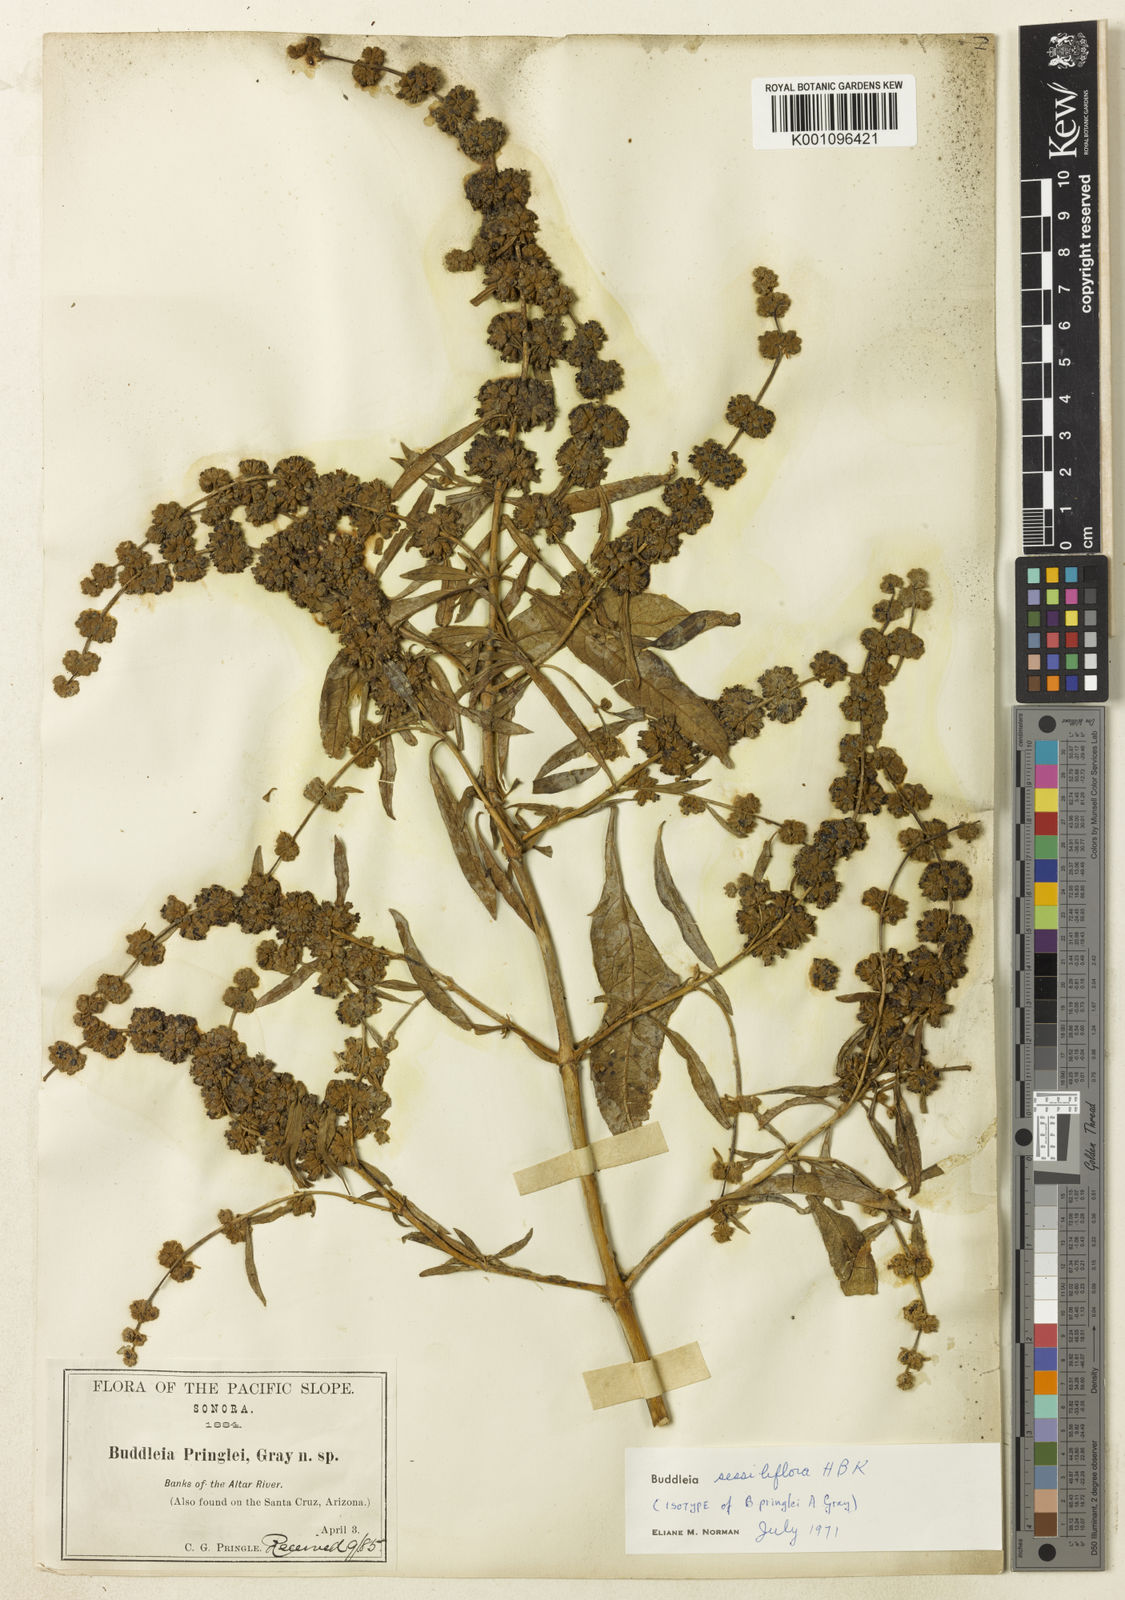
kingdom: Plantae
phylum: Tracheophyta
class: Magnoliopsida
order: Lamiales
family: Scrophulariaceae
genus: Buddleja
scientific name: Buddleja sessiliflora
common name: Rio grande butterfly-bush
